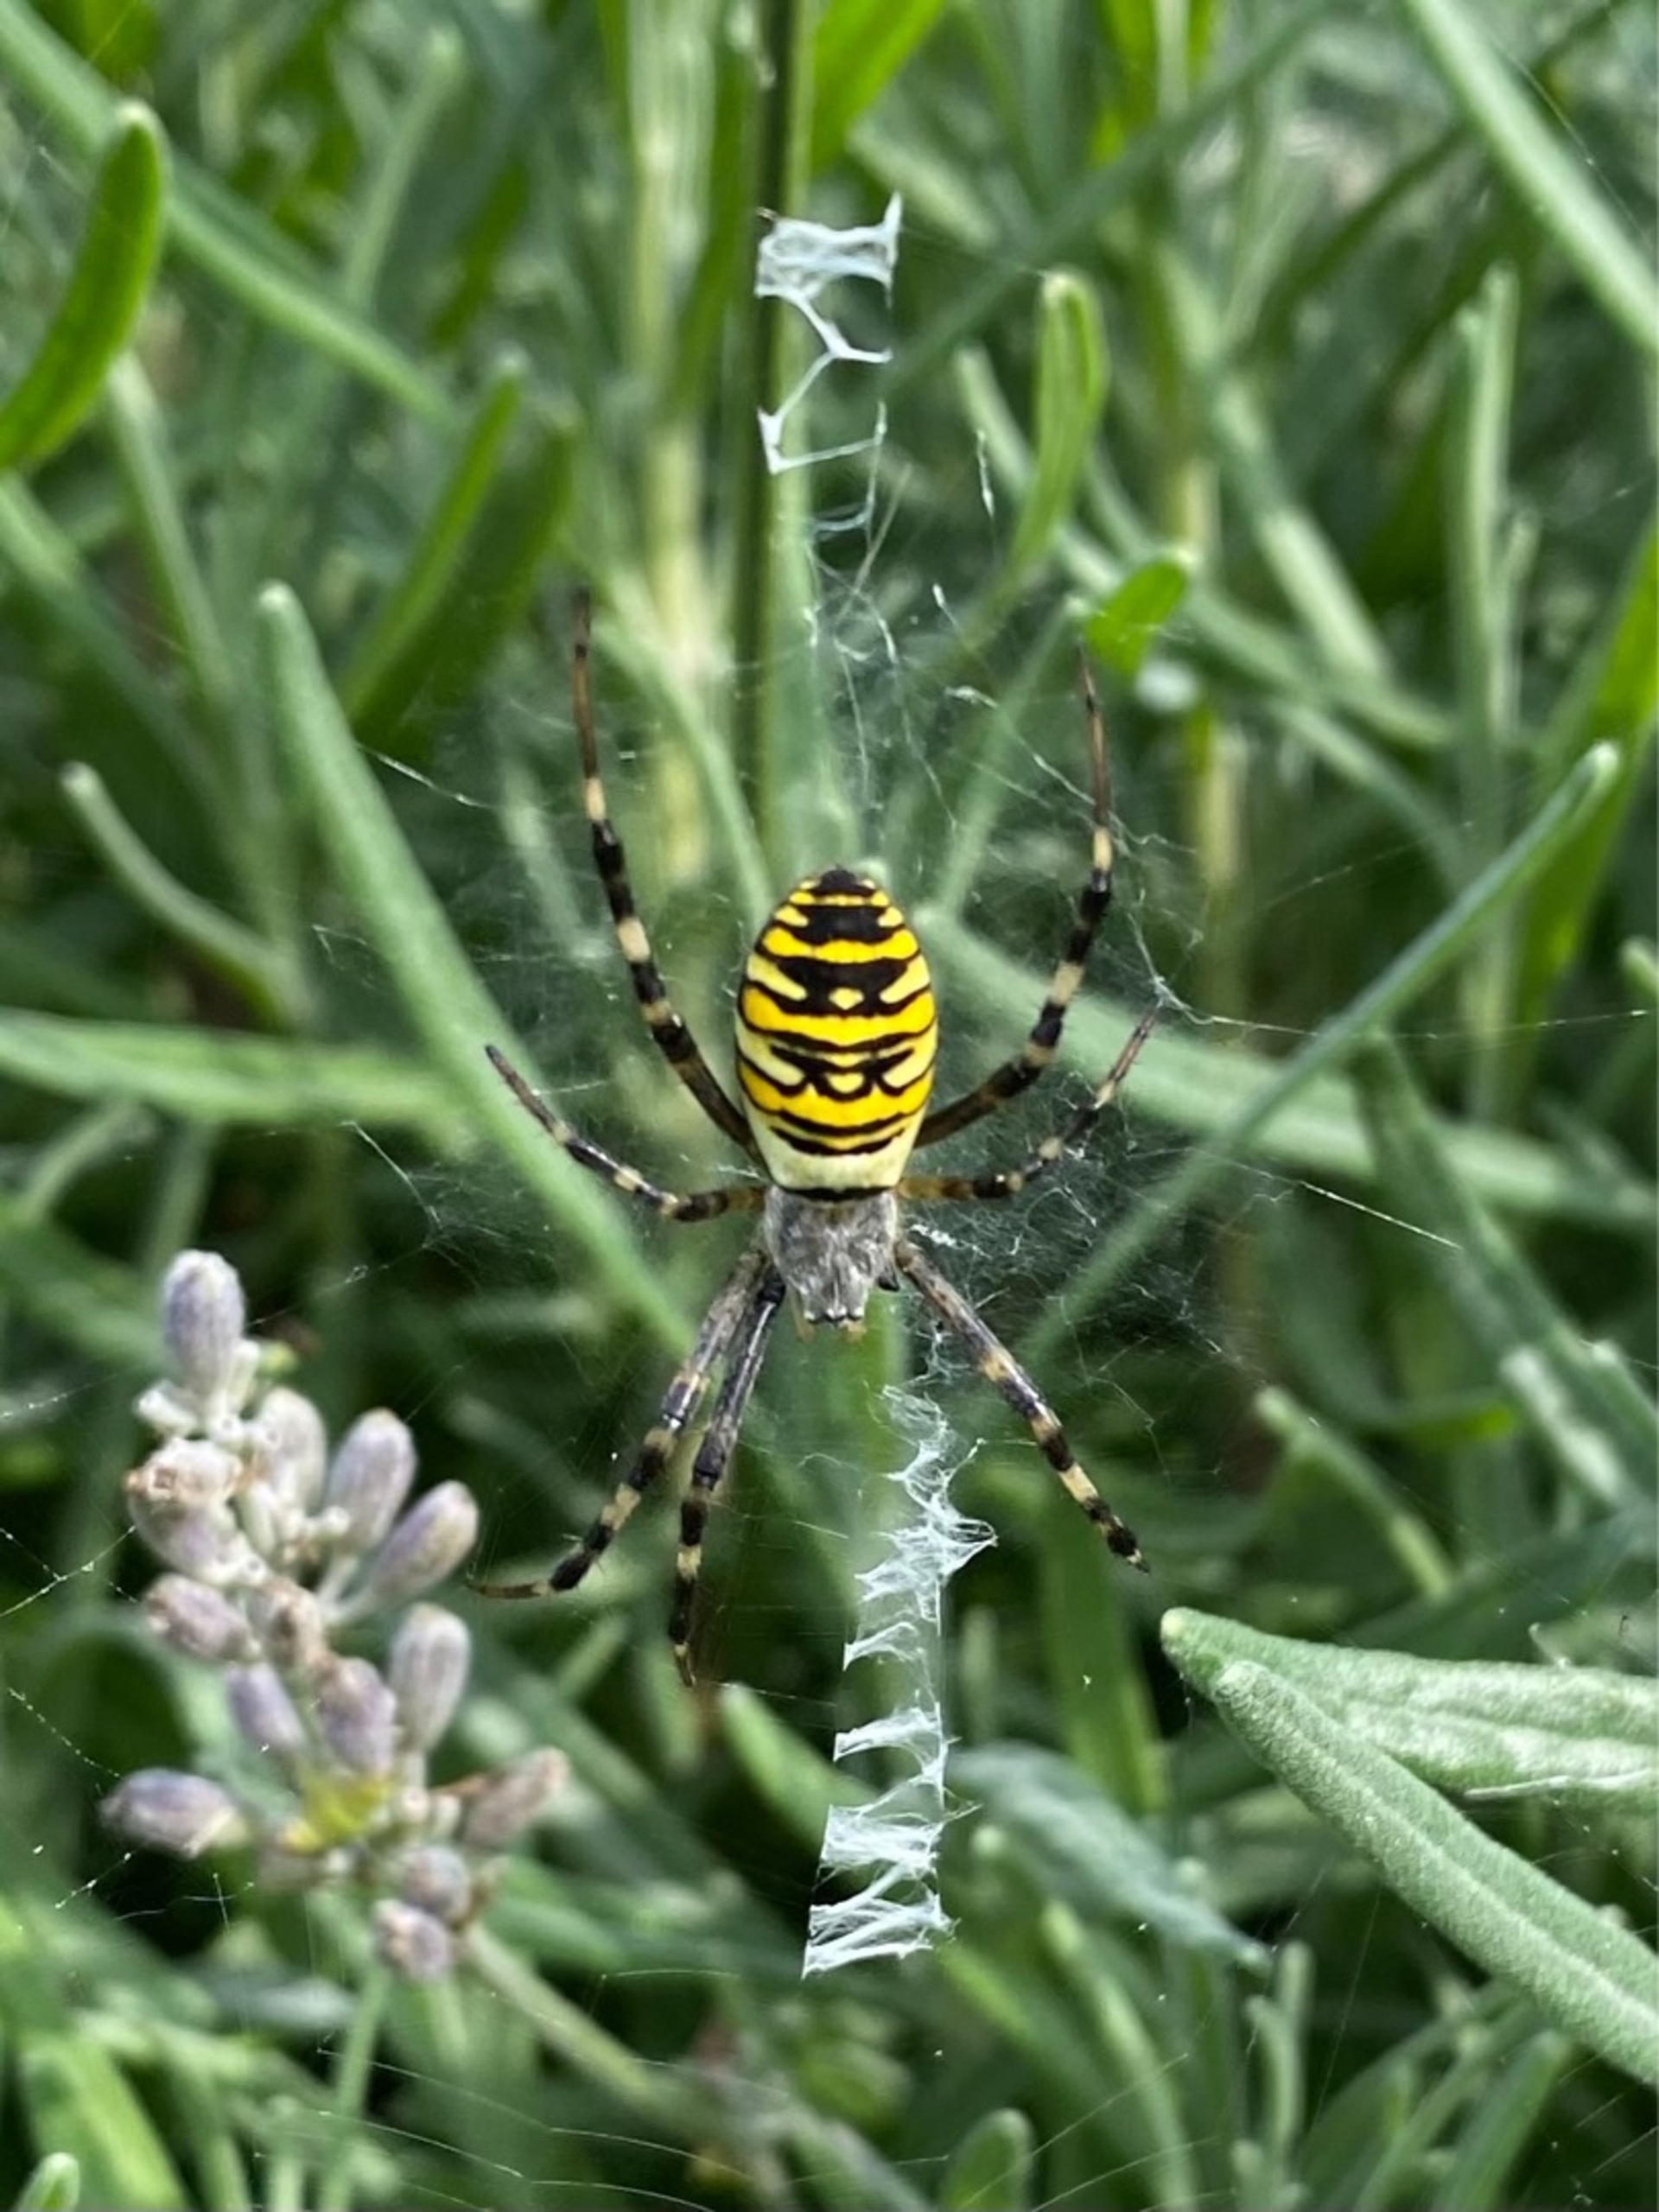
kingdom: Animalia
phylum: Arthropoda
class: Arachnida
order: Araneae
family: Araneidae
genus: Argiope
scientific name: Argiope bruennichi
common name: Hvepseedderkop
